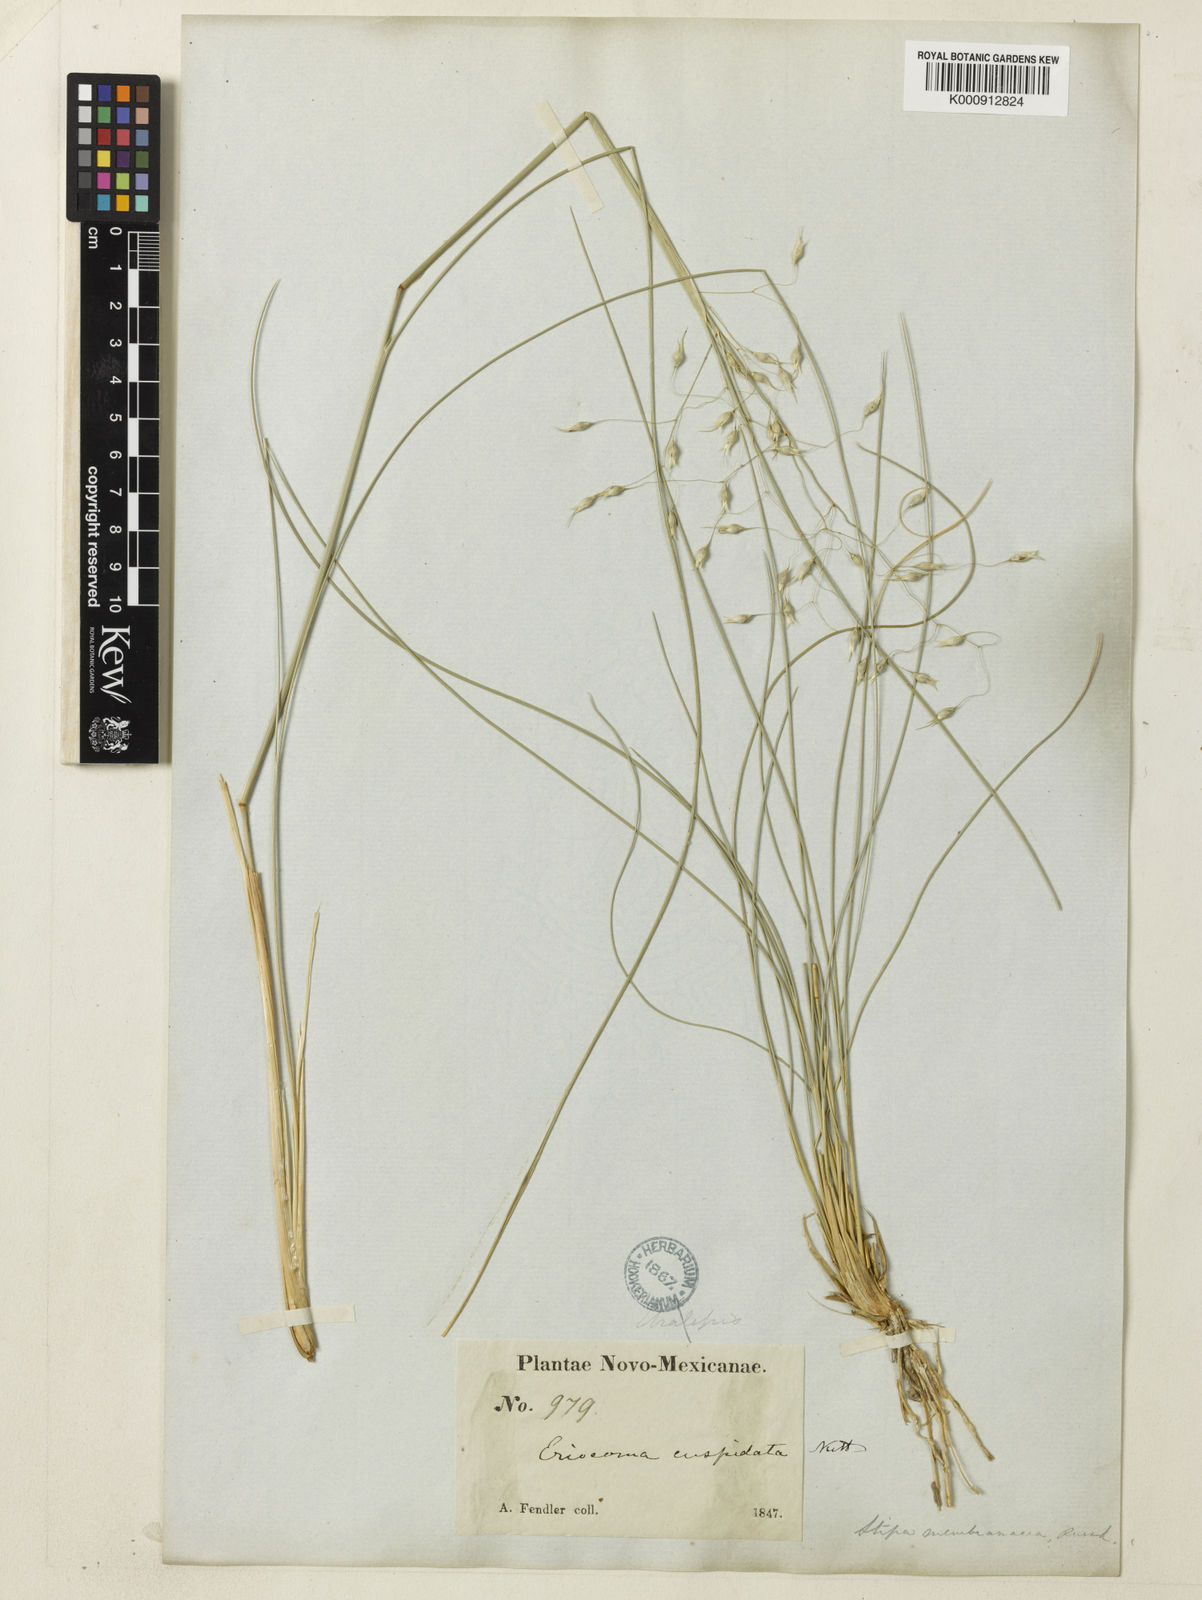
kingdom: Plantae
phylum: Tracheophyta
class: Liliopsida
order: Poales
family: Poaceae
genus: Eriocoma
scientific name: Eriocoma hymenoides
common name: Indian mountain ricegrass
